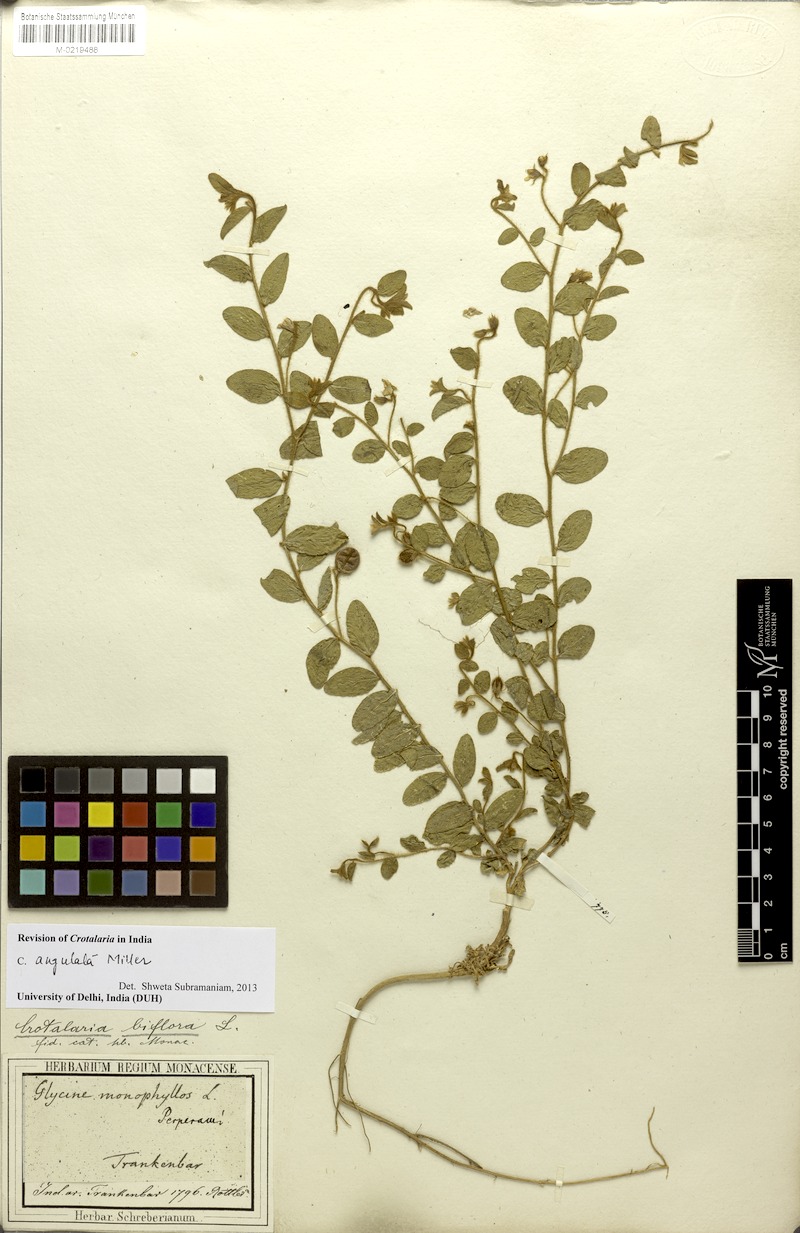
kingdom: Plantae
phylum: Tracheophyta
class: Magnoliopsida
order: Fabales
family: Fabaceae
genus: Crotalaria
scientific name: Crotalaria angulata
